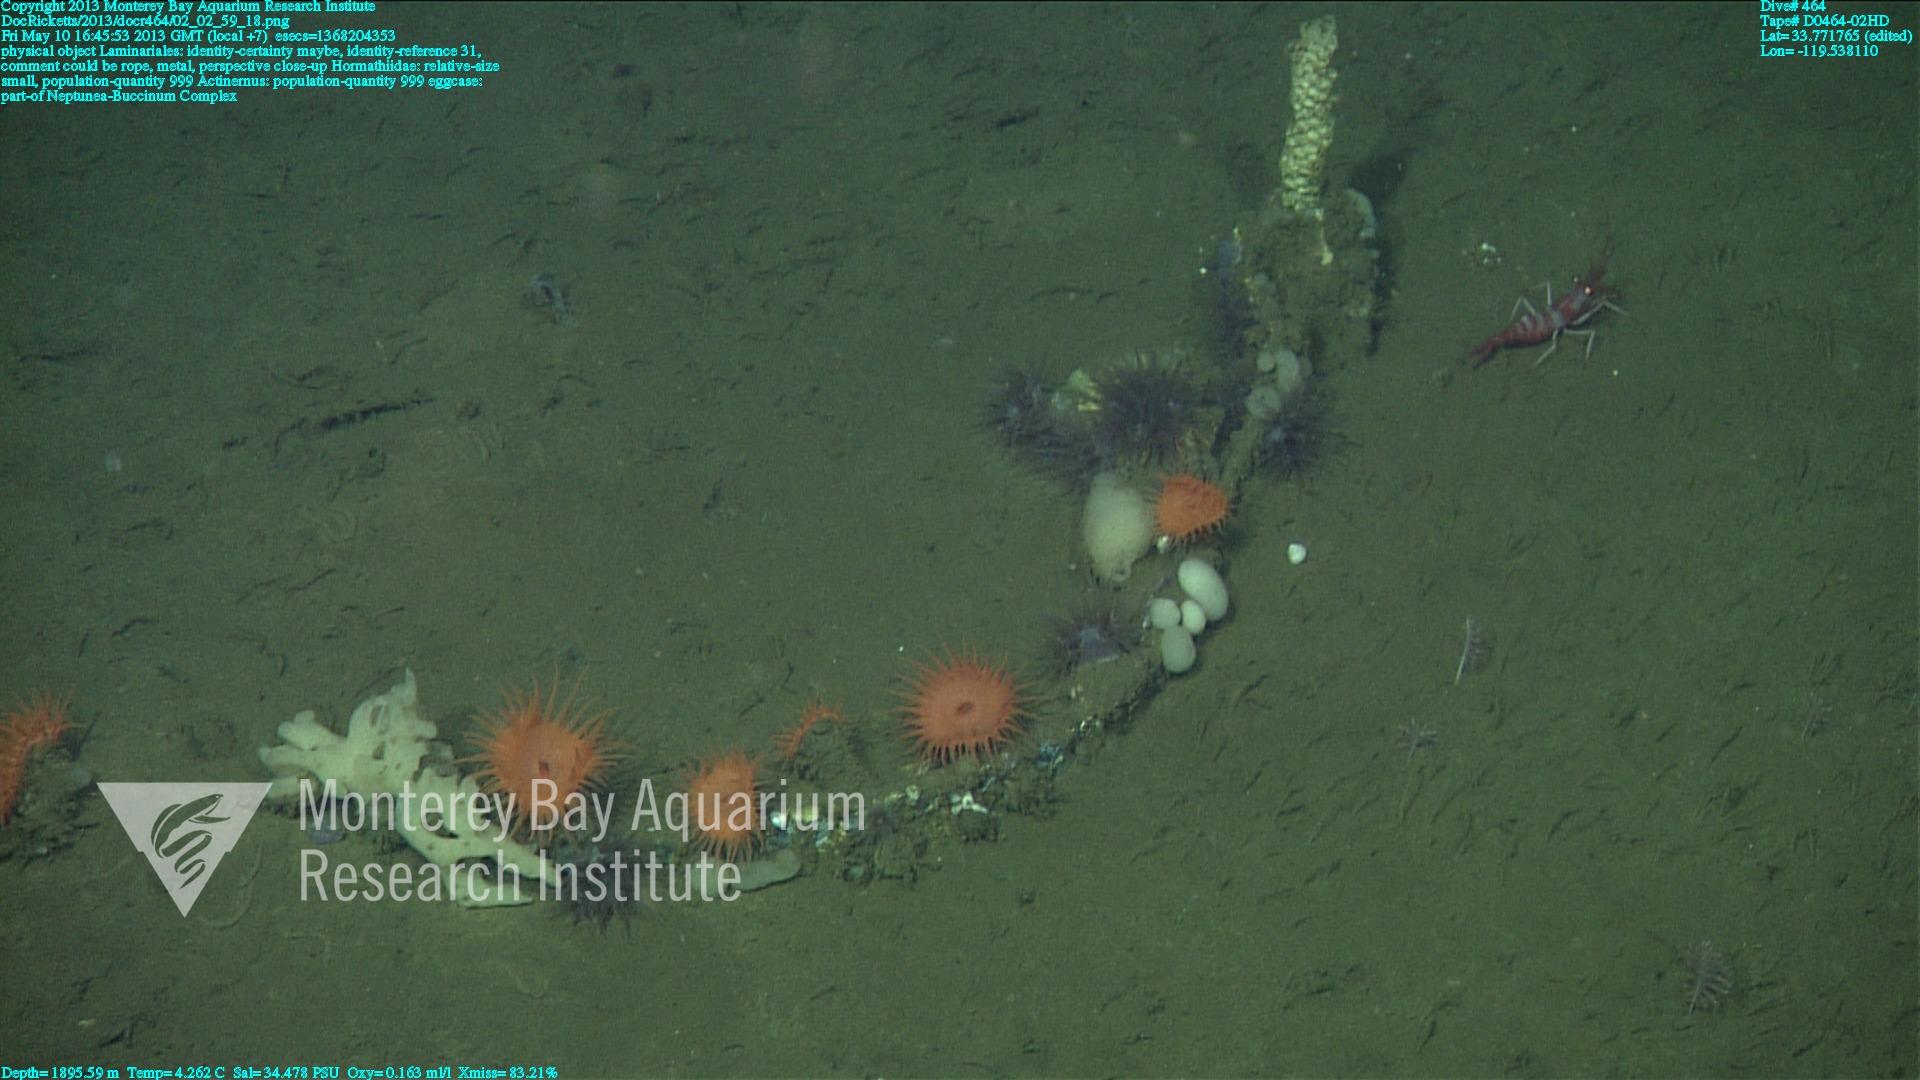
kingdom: Animalia
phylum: Porifera
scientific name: Porifera
